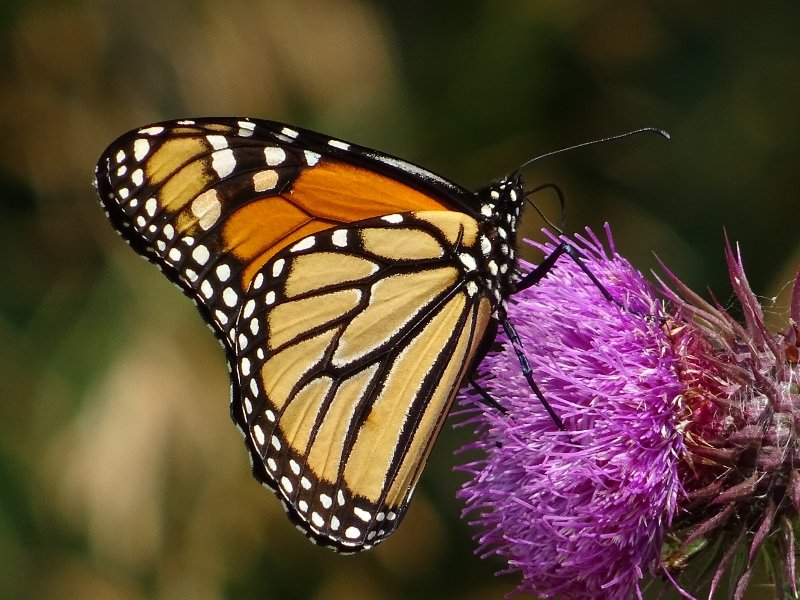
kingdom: Animalia
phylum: Arthropoda
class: Insecta
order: Lepidoptera
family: Nymphalidae
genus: Danaus
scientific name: Danaus plexippus
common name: Monarch
